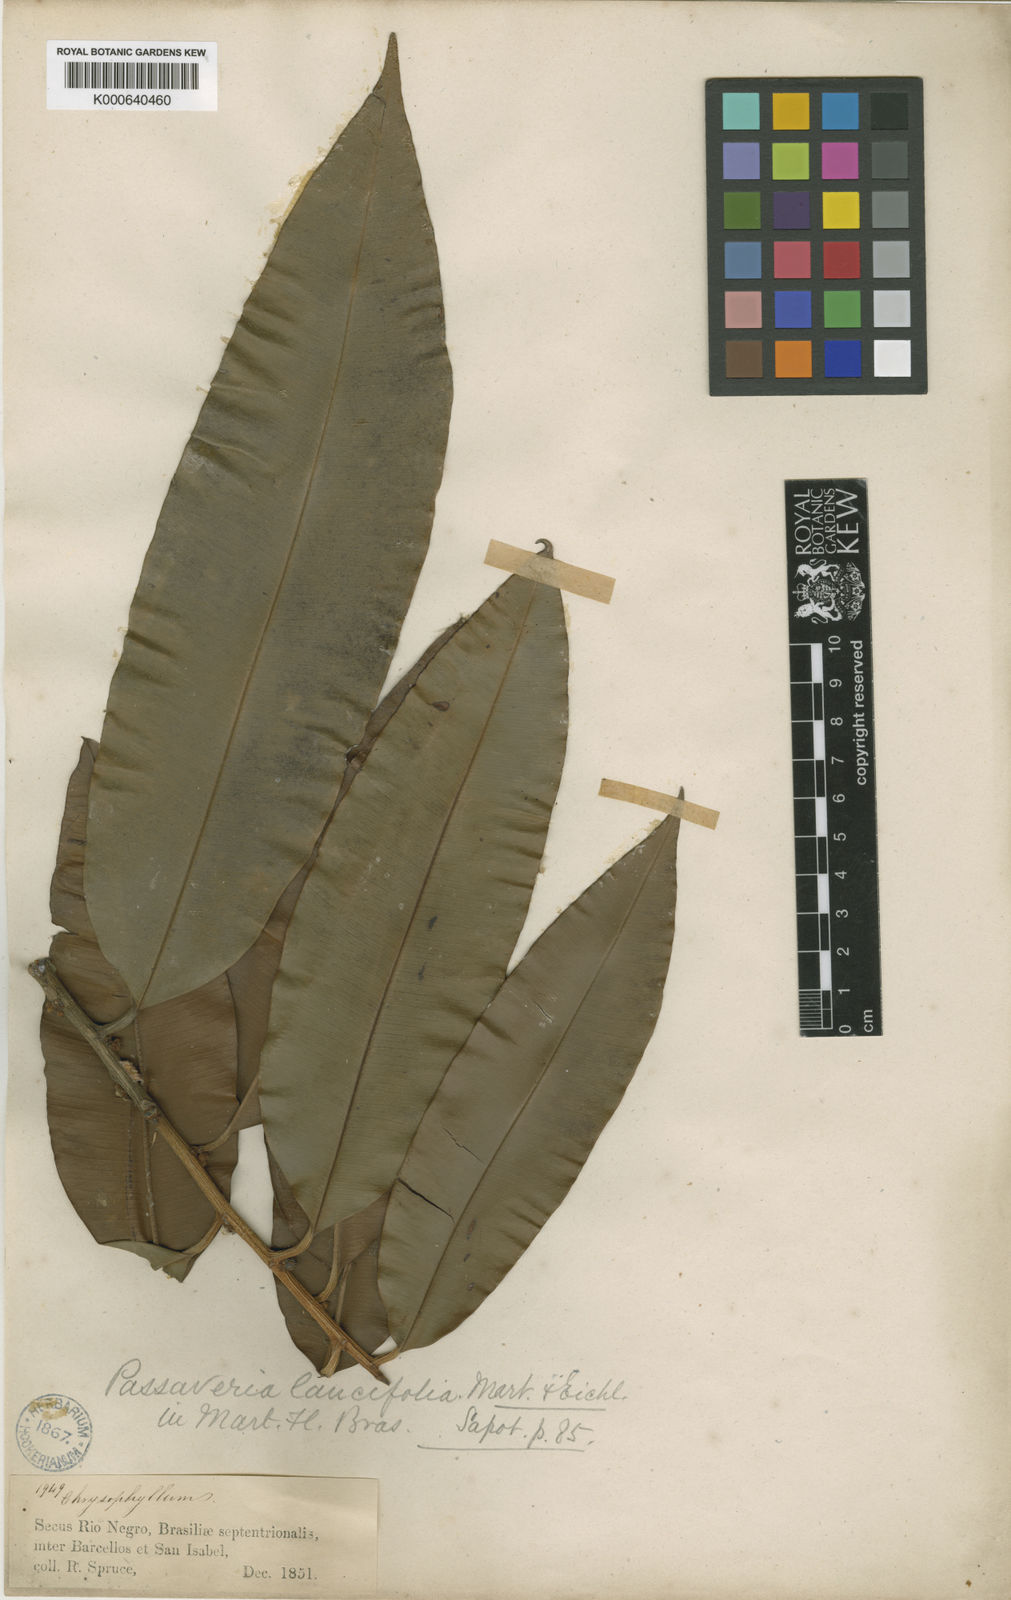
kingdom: Plantae
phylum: Tracheophyta
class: Magnoliopsida
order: Ericales
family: Sapotaceae
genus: Ecclinusa
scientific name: Ecclinusa lancifolia
